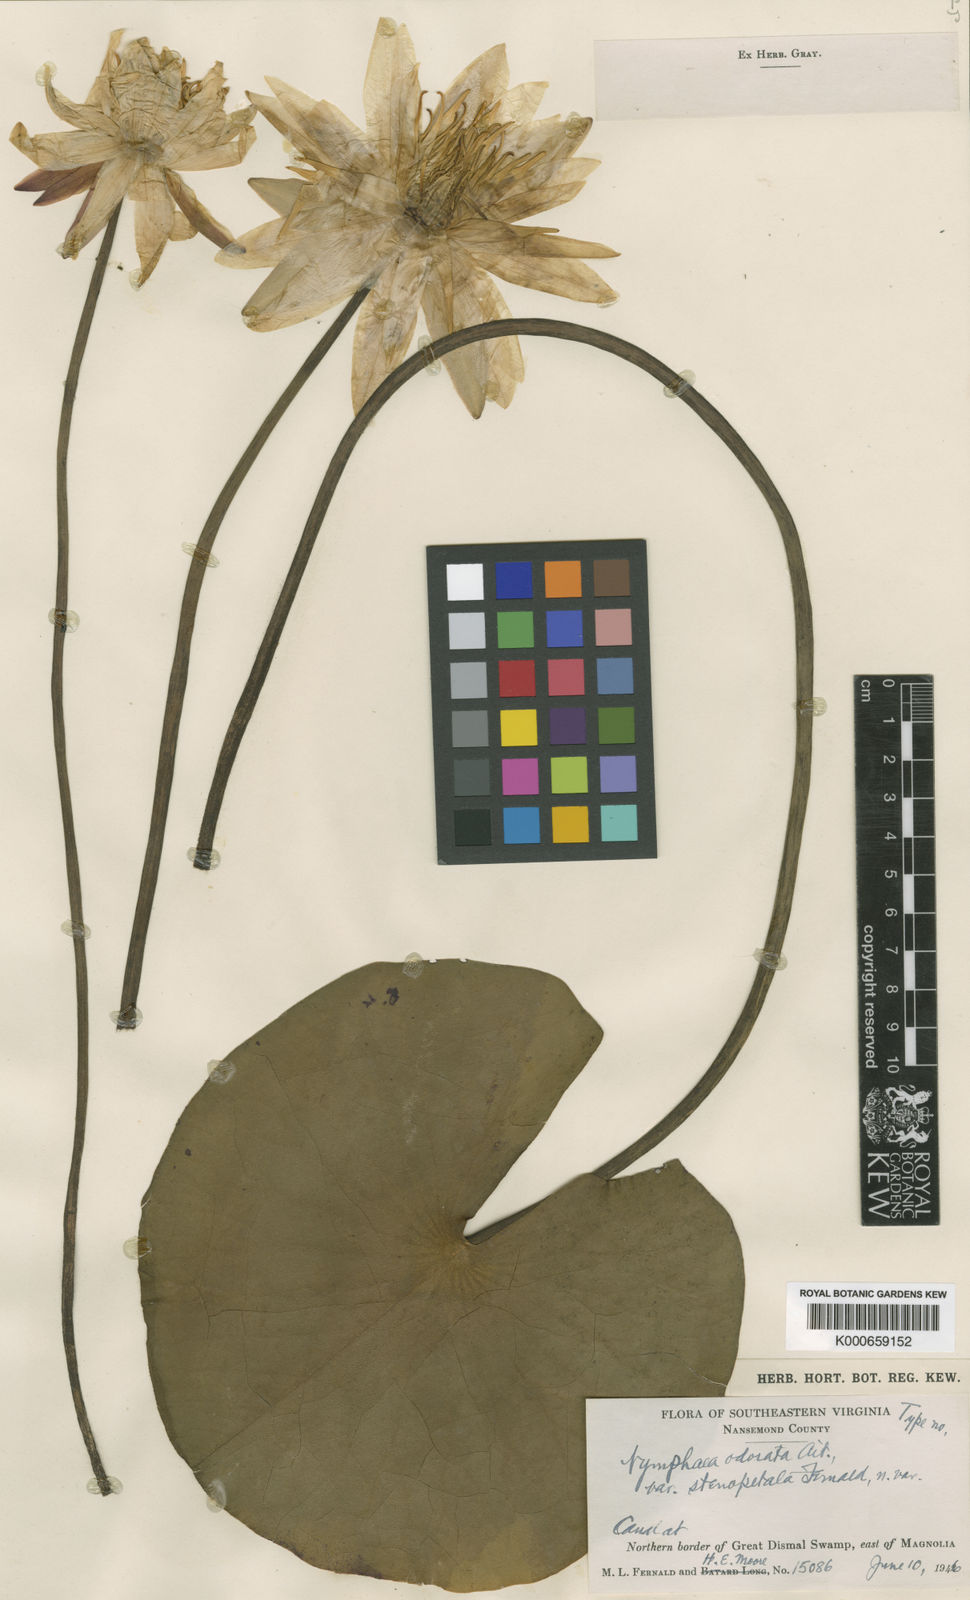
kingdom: Plantae
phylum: Tracheophyta
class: Magnoliopsida
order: Nymphaeales
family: Nymphaeaceae
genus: Nymphaea
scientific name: Nymphaea odorata
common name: Fragrant water-lily
